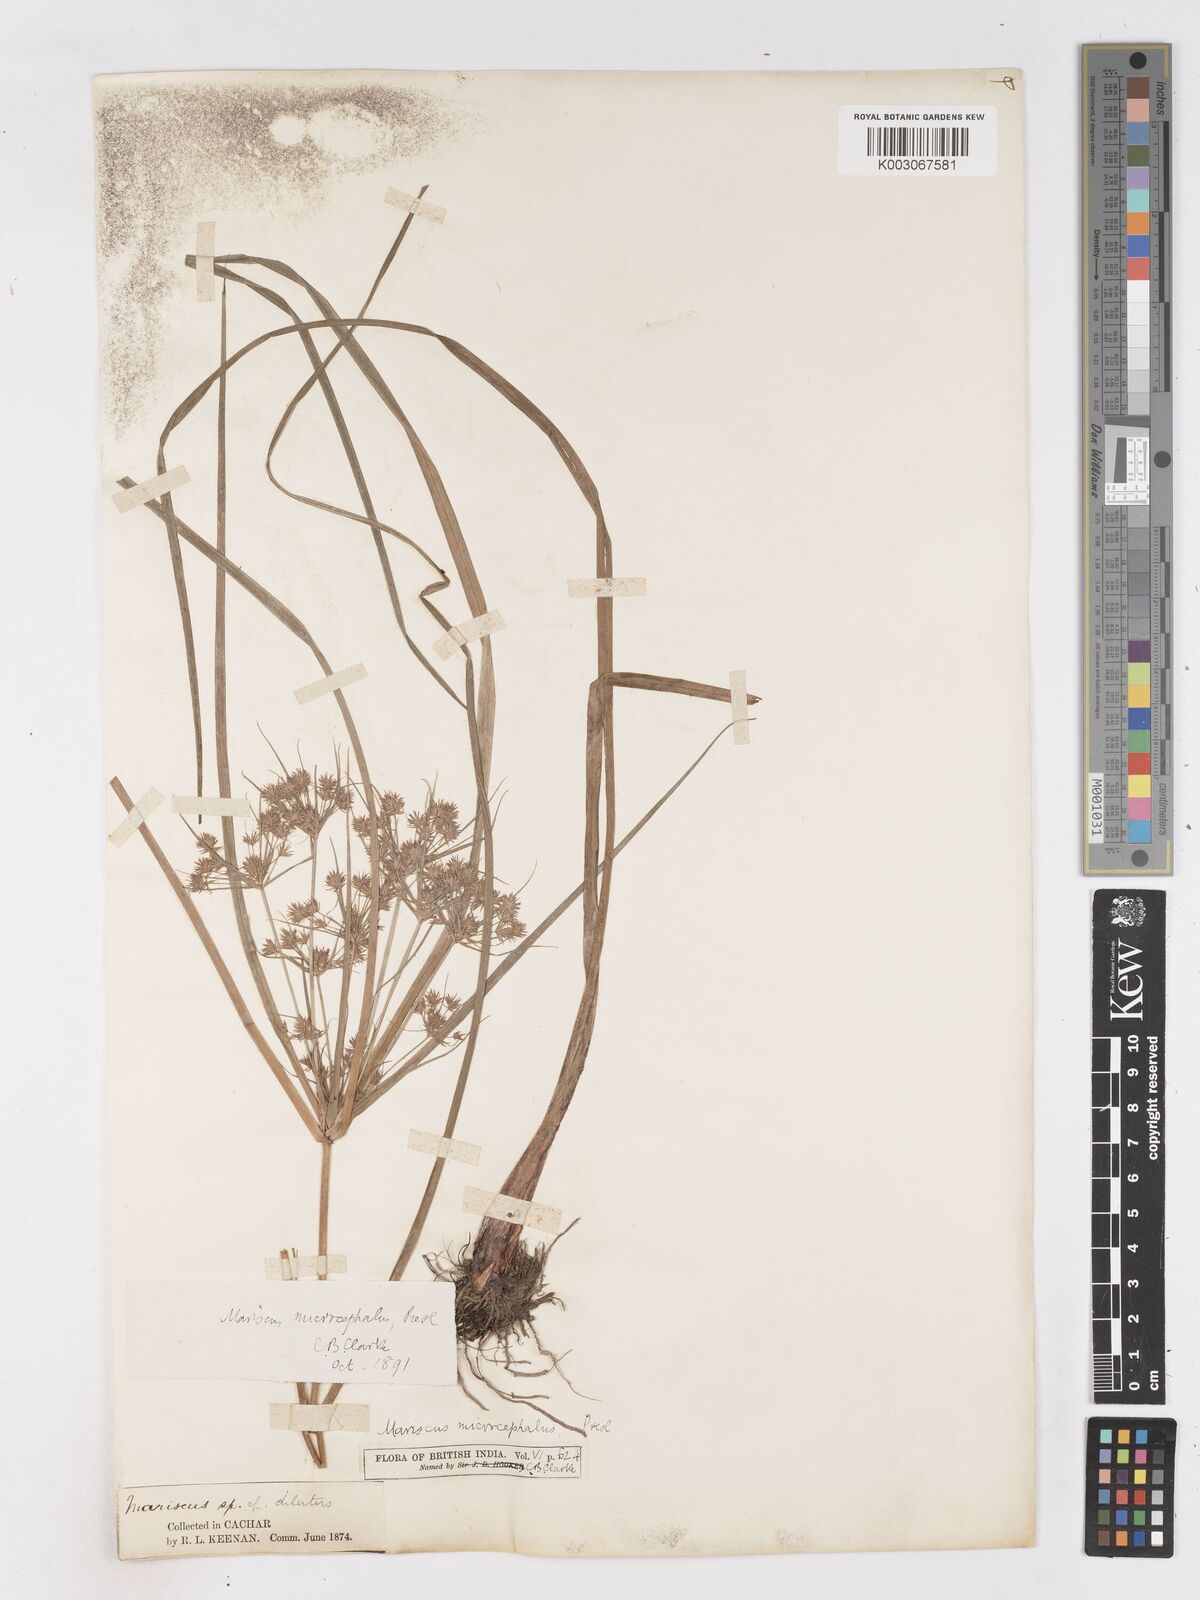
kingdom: Plantae
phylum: Tracheophyta
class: Liliopsida
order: Poales
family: Cyperaceae
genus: Cyperus
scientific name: Cyperus compactus
